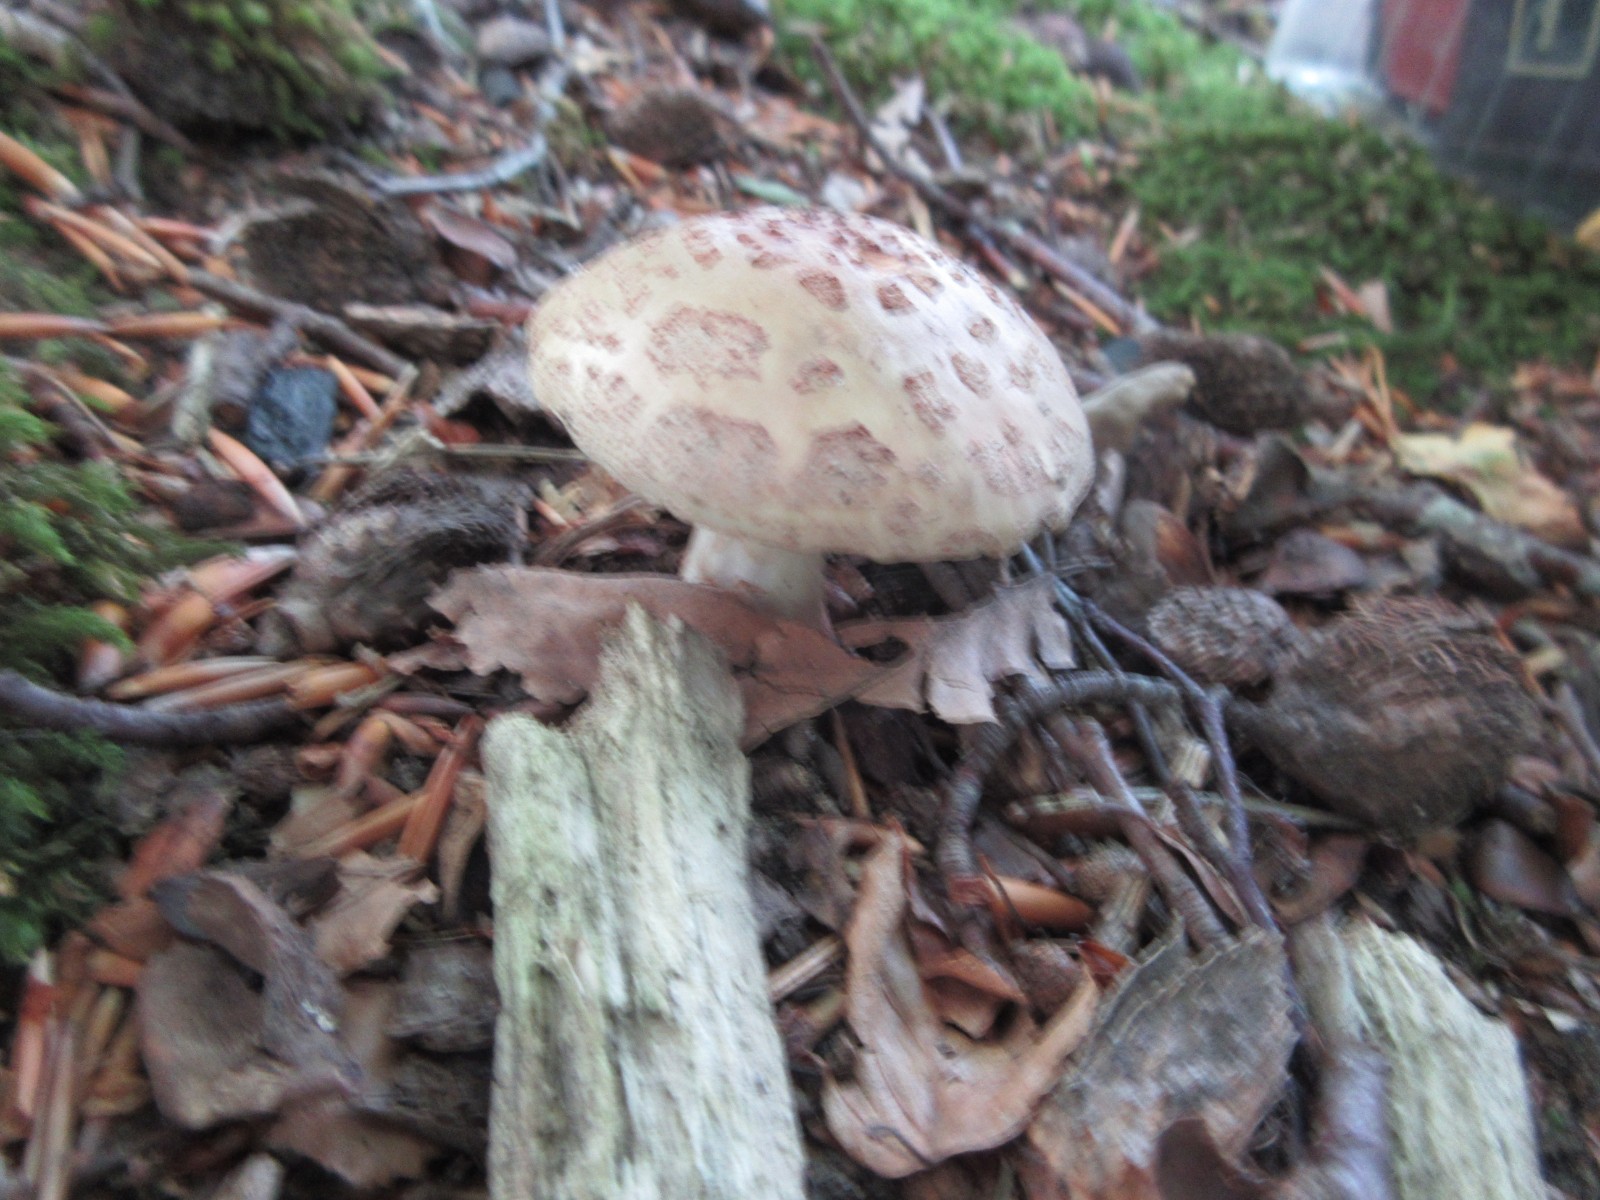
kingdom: Fungi
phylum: Basidiomycota
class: Agaricomycetes
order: Agaricales
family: Amanitaceae
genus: Amanita
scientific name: Amanita rubescens
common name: rødmende fluesvamp
